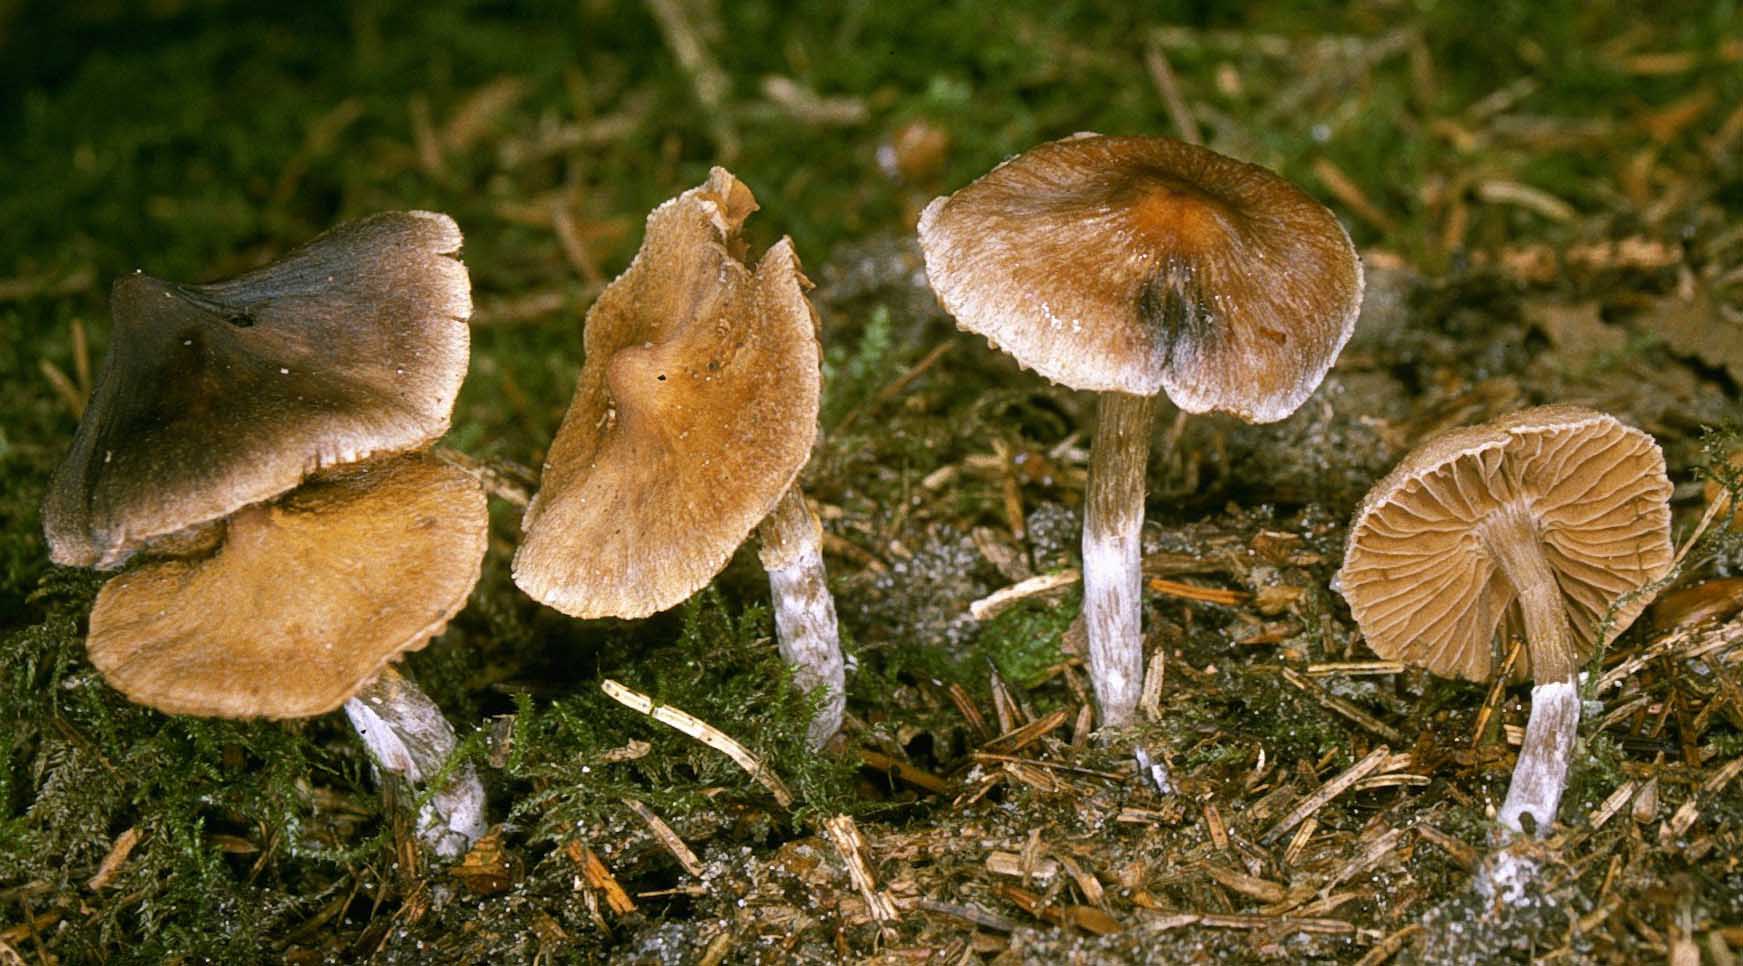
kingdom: Fungi
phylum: Basidiomycota
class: Agaricomycetes
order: Agaricales
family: Cortinariaceae
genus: Cortinarius
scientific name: Cortinarius parvannulatus
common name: krave-slørhat
